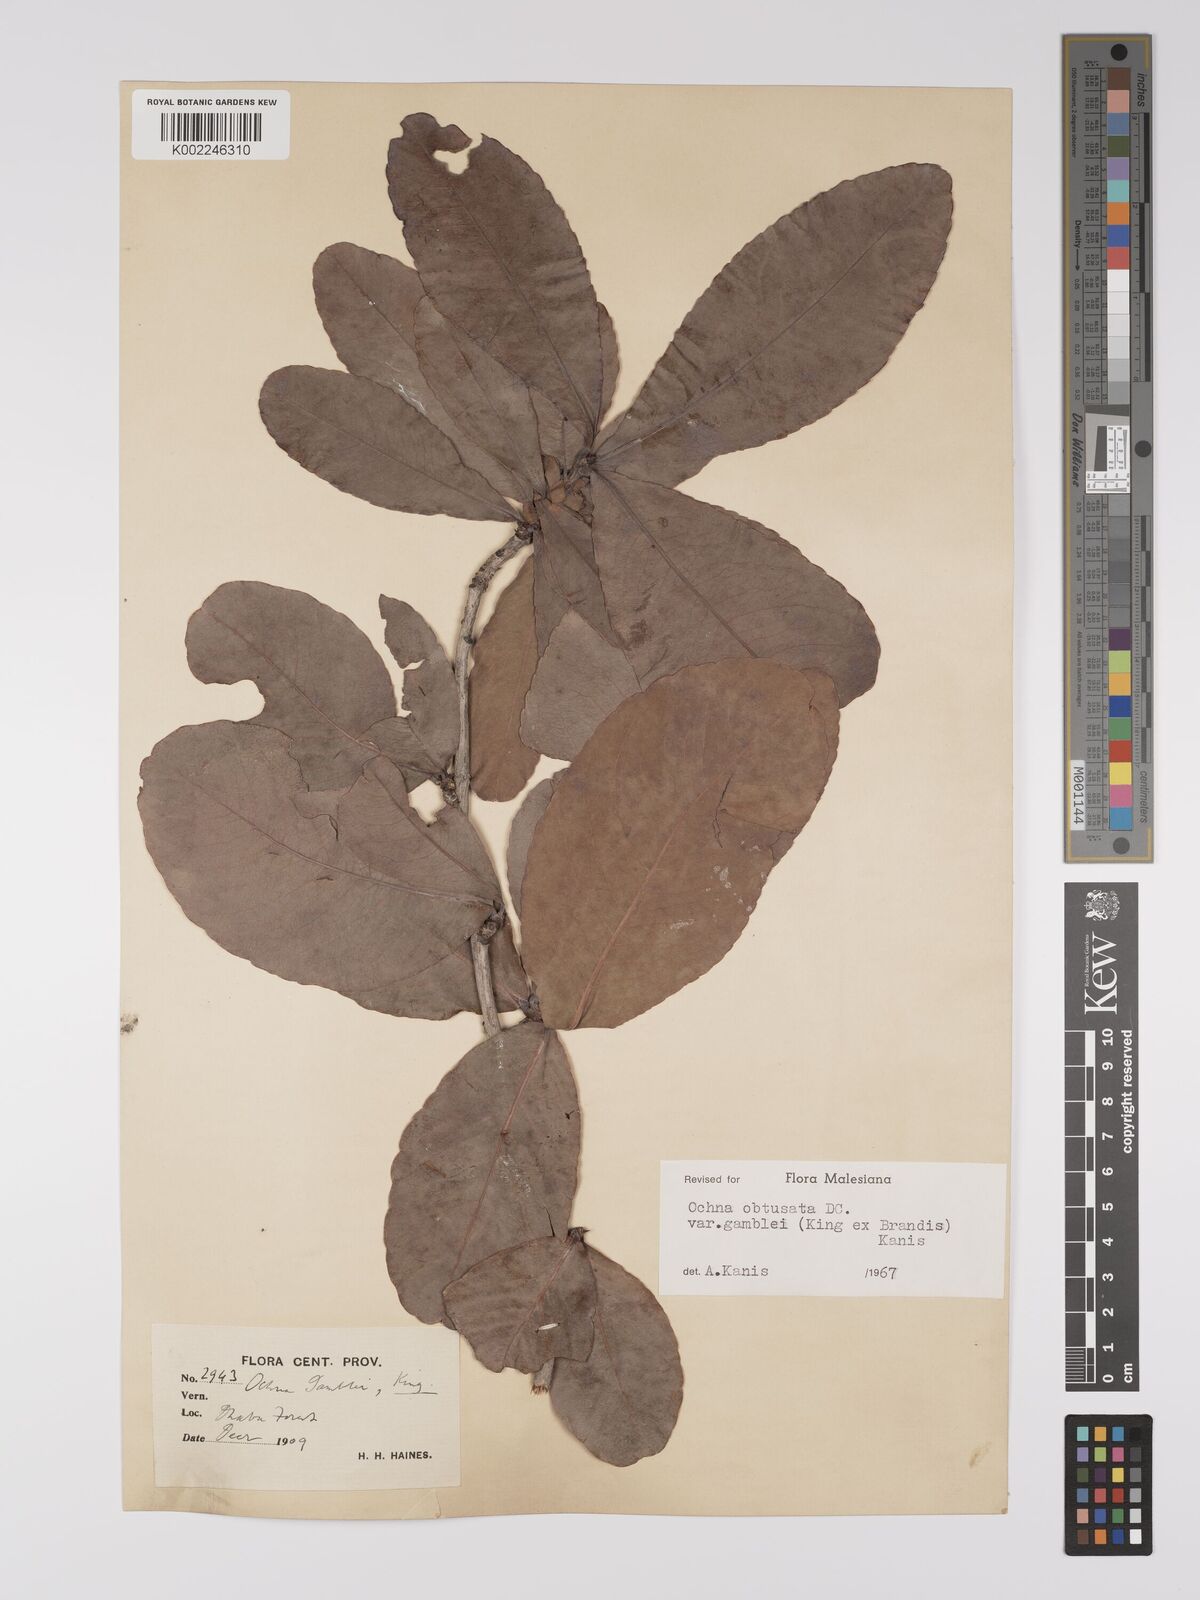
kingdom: Plantae
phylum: Tracheophyta
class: Magnoliopsida
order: Malpighiales
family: Ochnaceae
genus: Ochna
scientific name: Ochna obtusata
